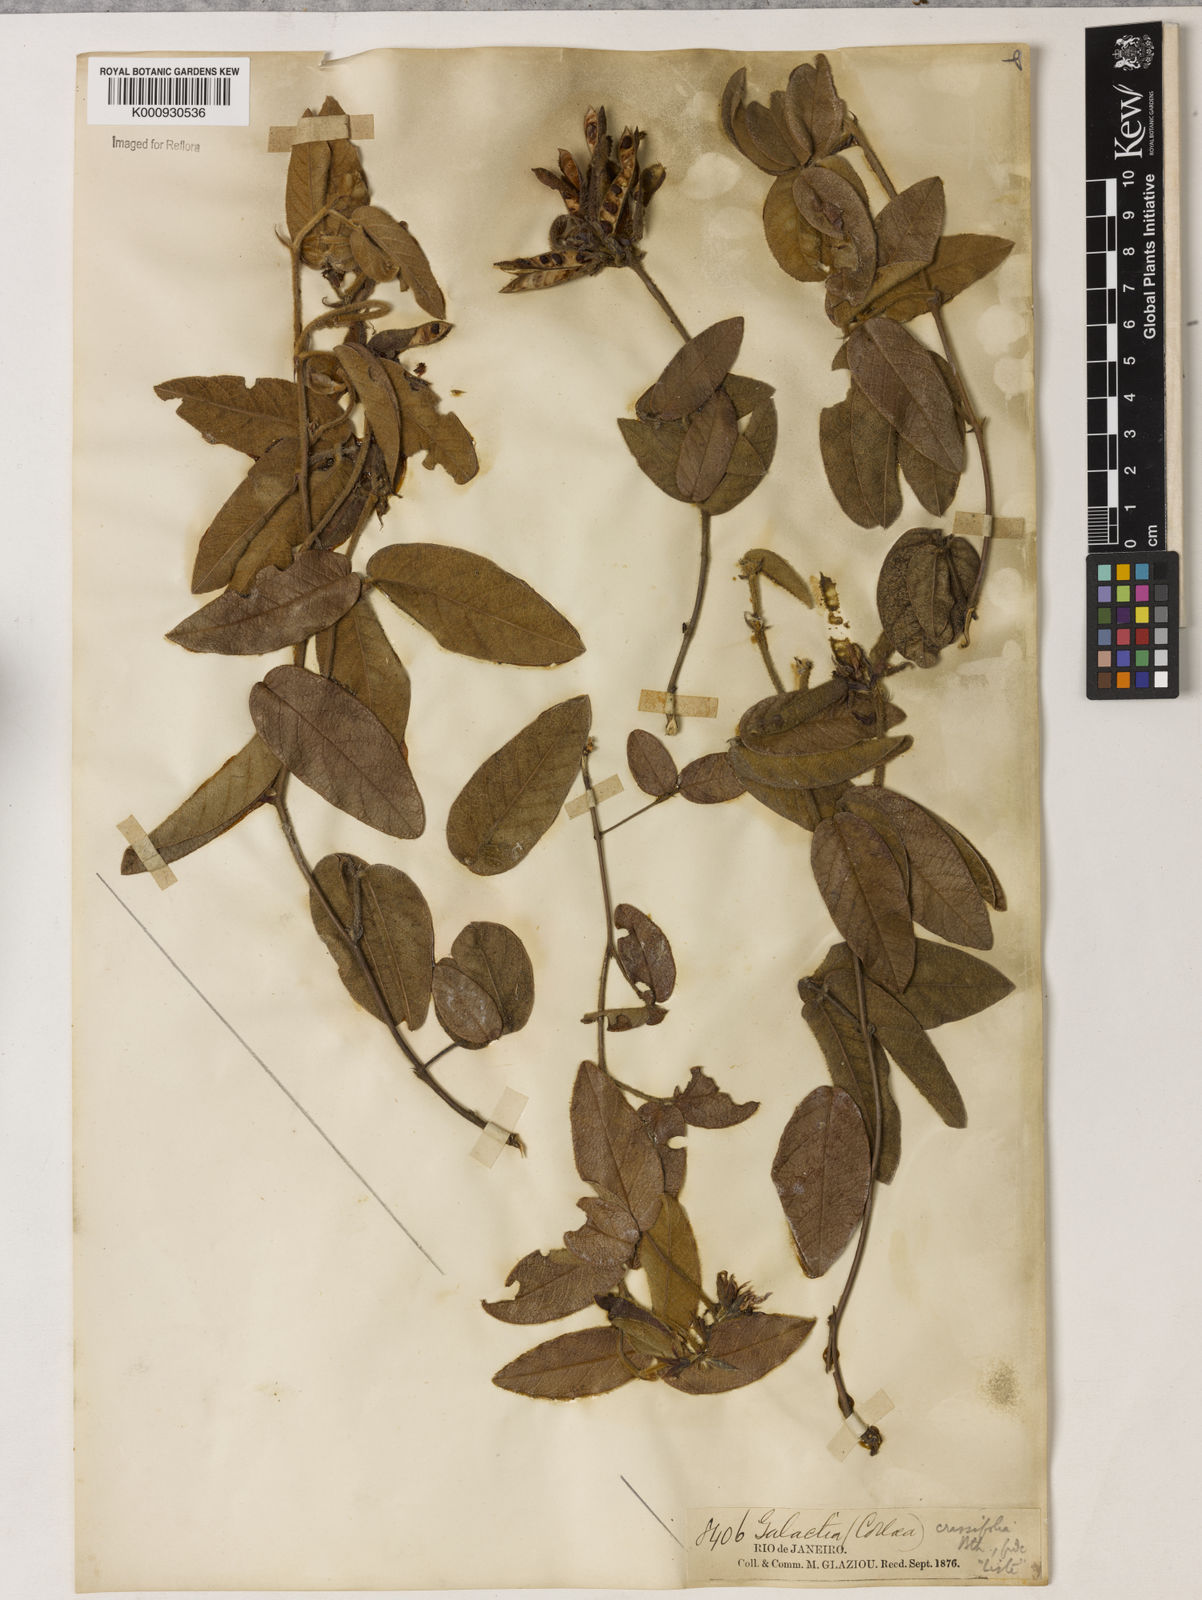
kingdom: Plantae
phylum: Tracheophyta
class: Magnoliopsida
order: Fabales
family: Fabaceae
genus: Betencourtia
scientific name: Betencourtia crassifolia
